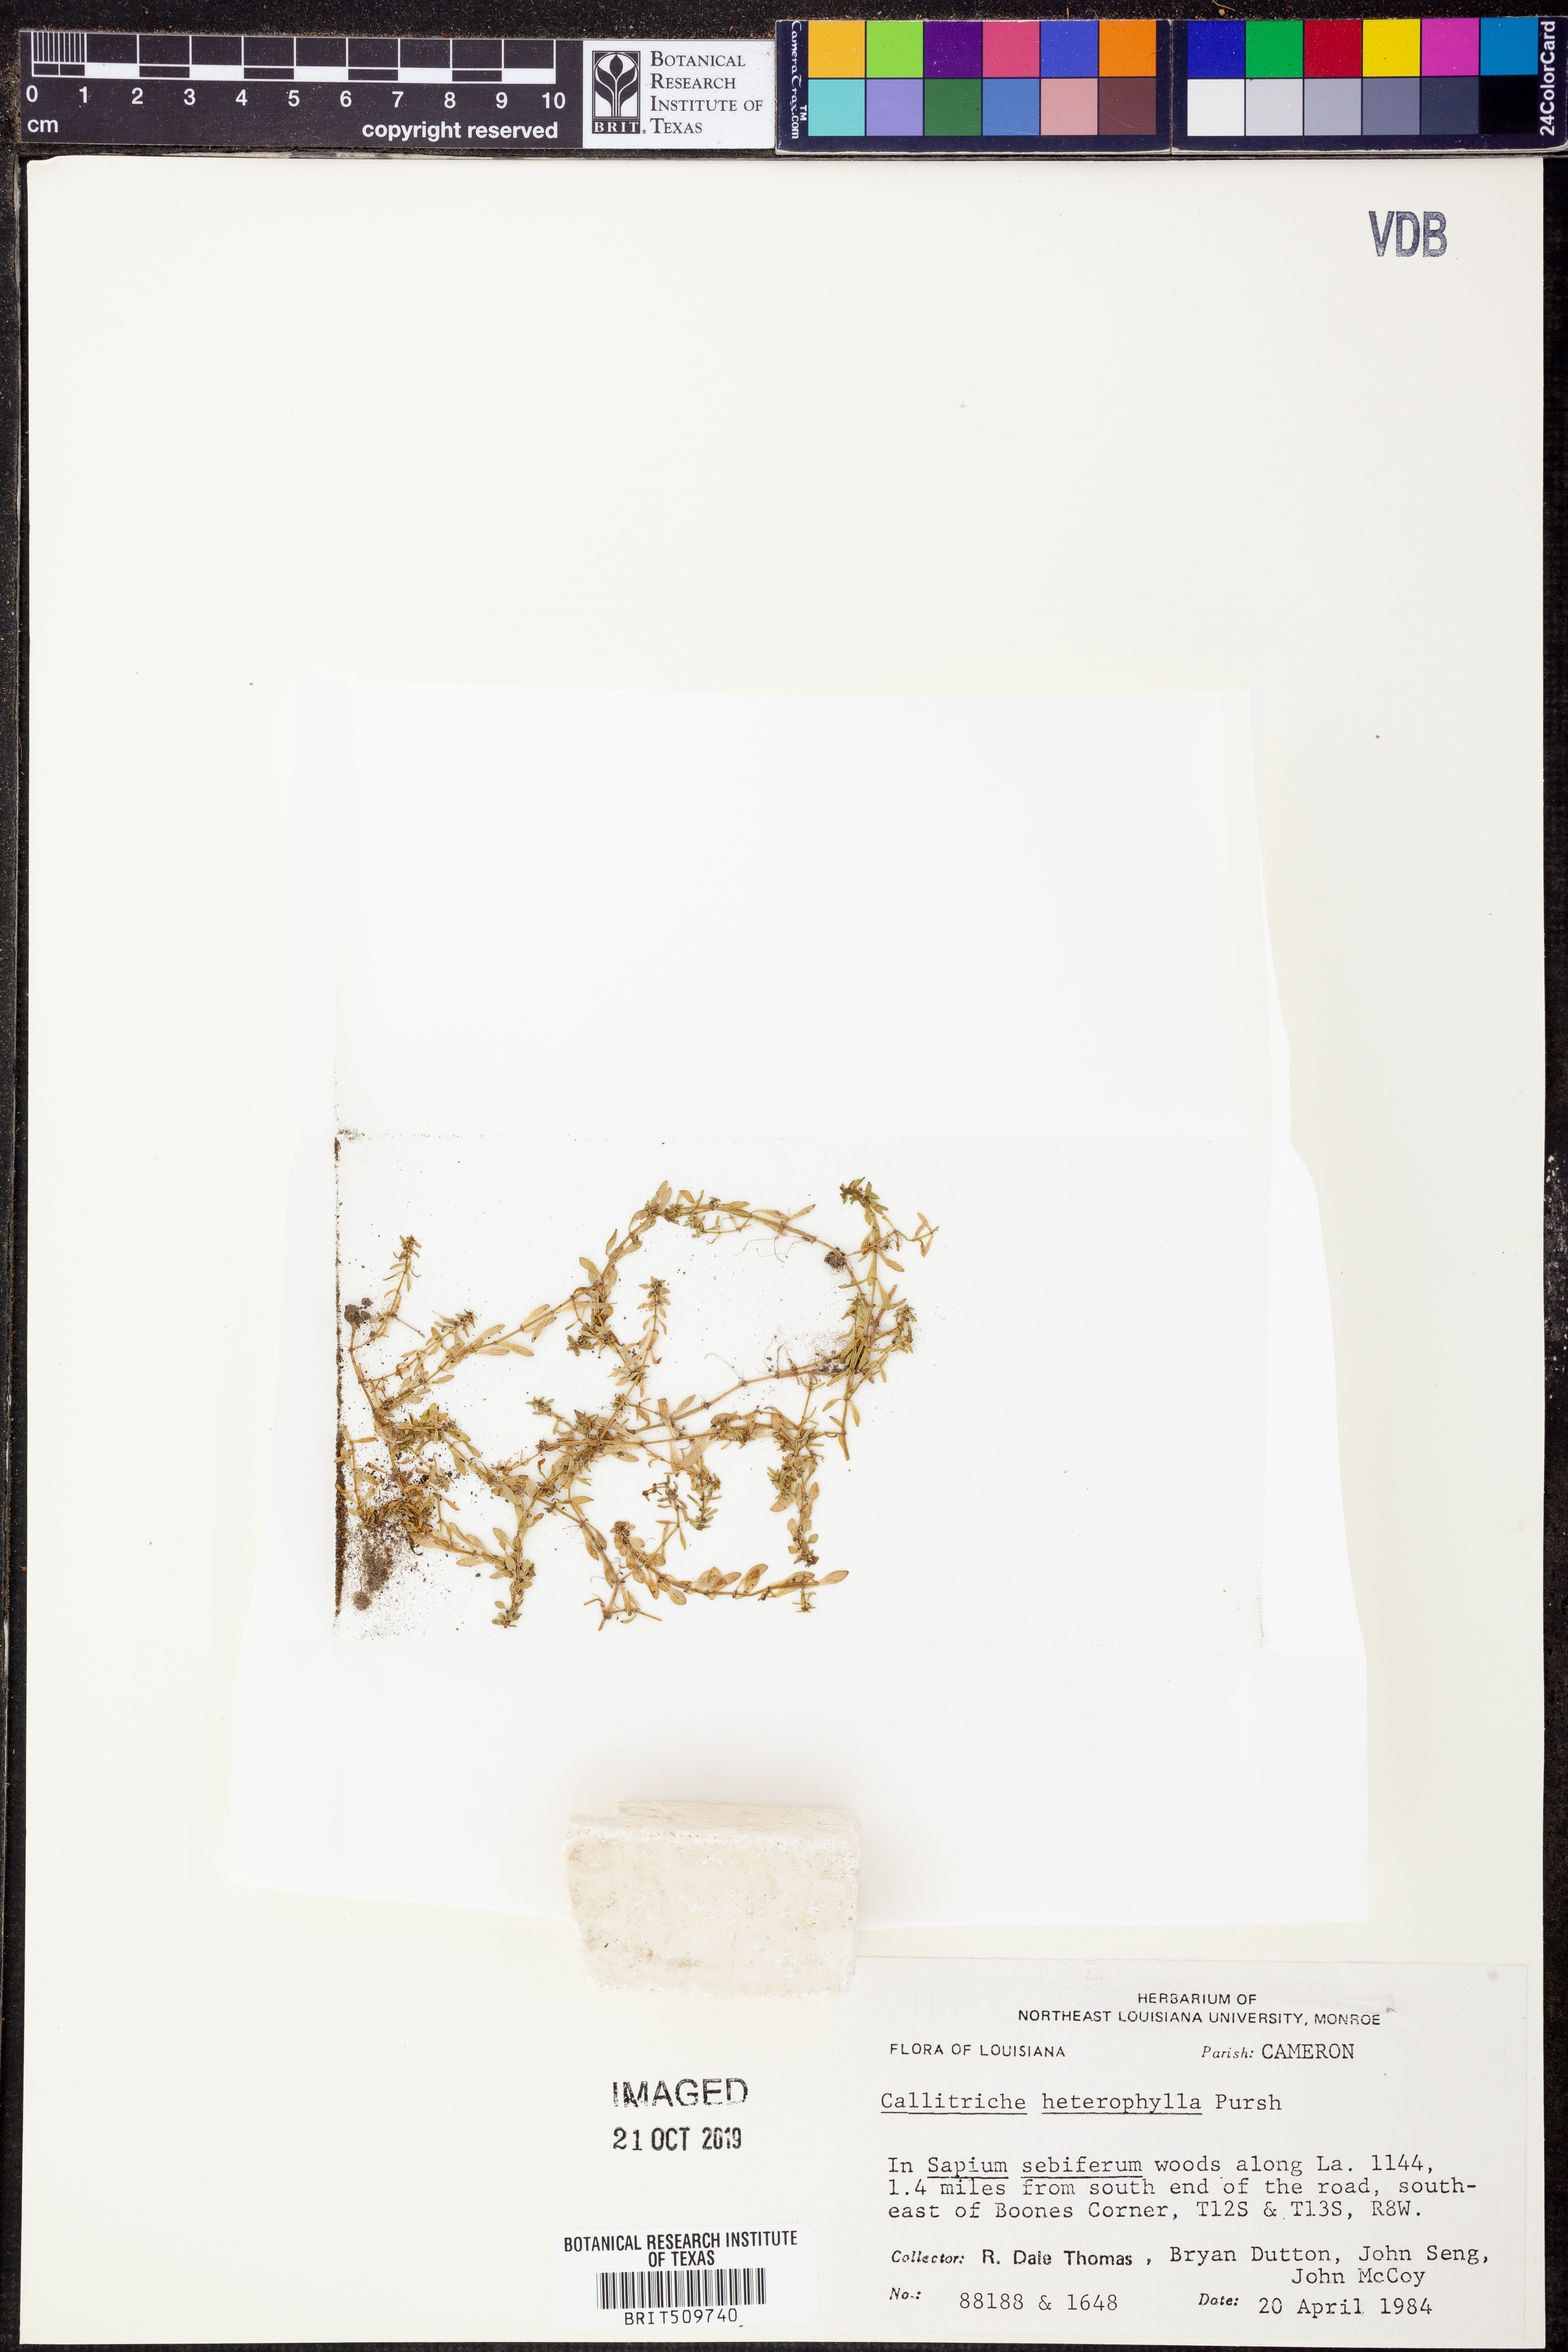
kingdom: Plantae
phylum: Tracheophyta
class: Magnoliopsida
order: Lamiales
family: Plantaginaceae
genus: Callitriche
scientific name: Callitriche heterophylla
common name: Two-headed water-starwort
